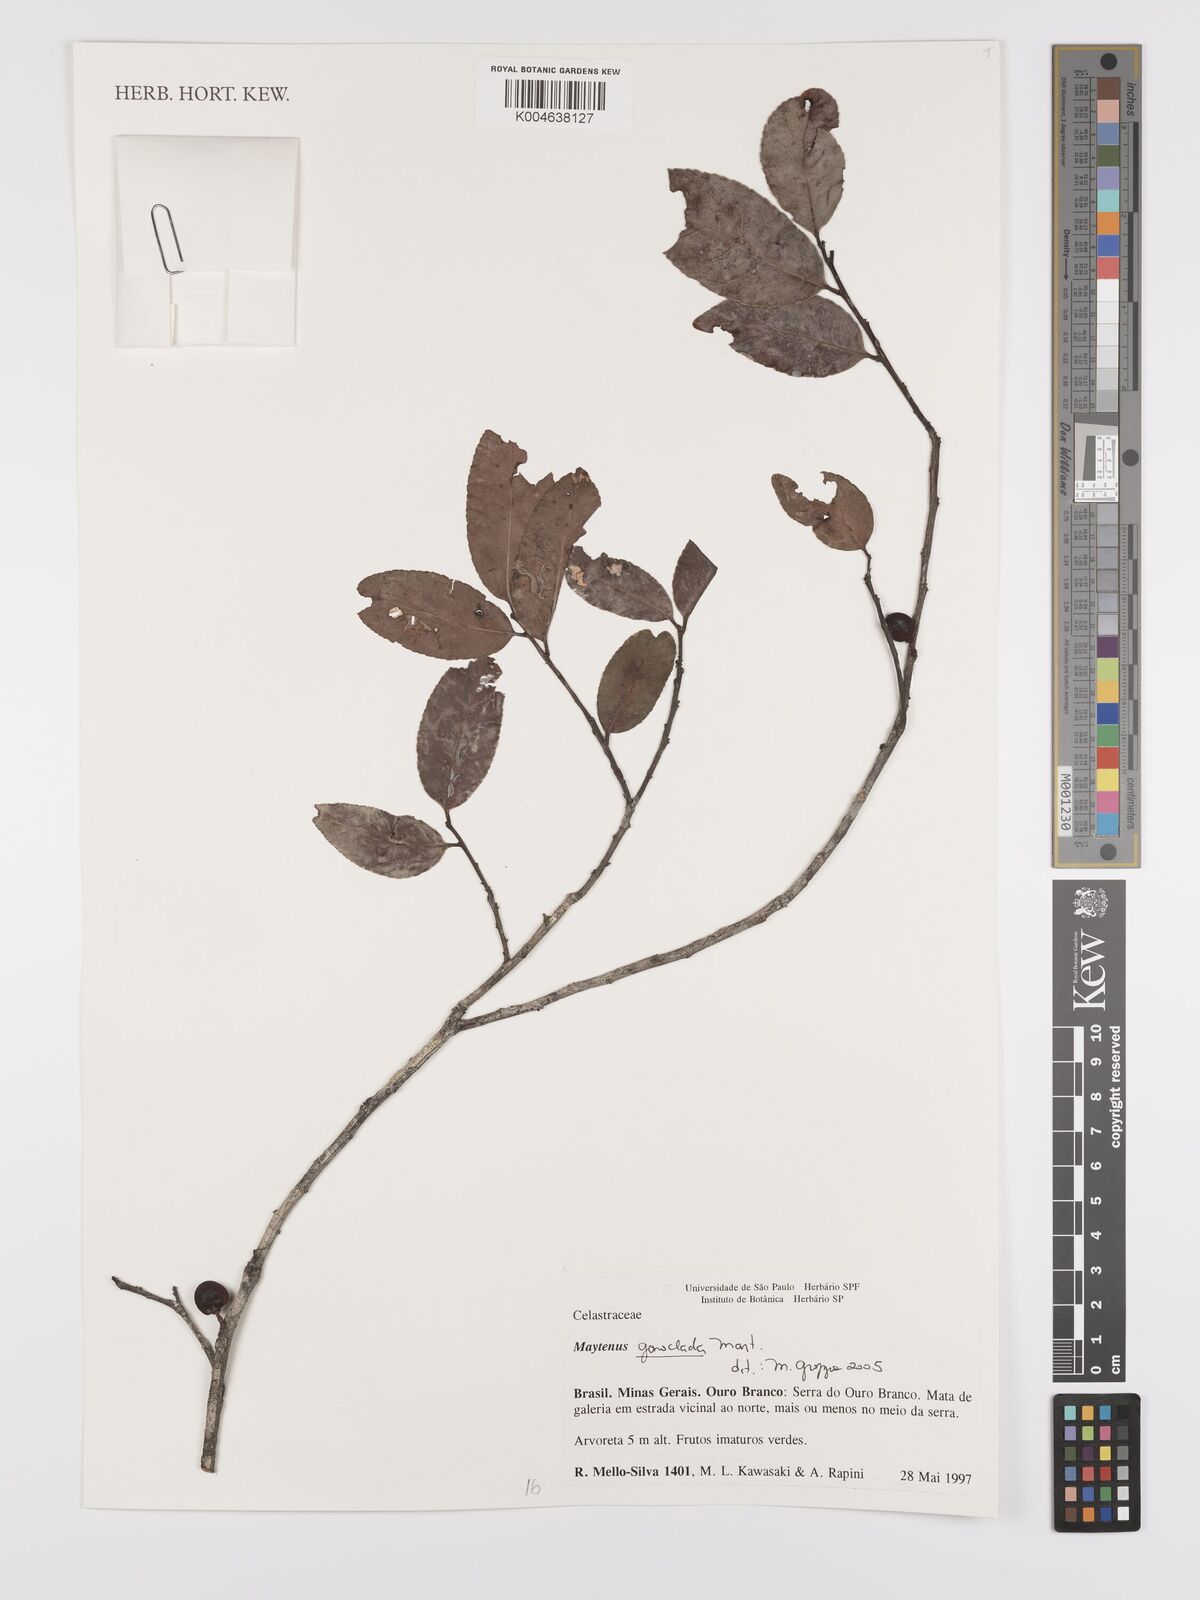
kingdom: Plantae
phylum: Tracheophyta
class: Magnoliopsida
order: Celastrales
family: Celastraceae
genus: Monteverdia
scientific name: Monteverdia gonoclada
